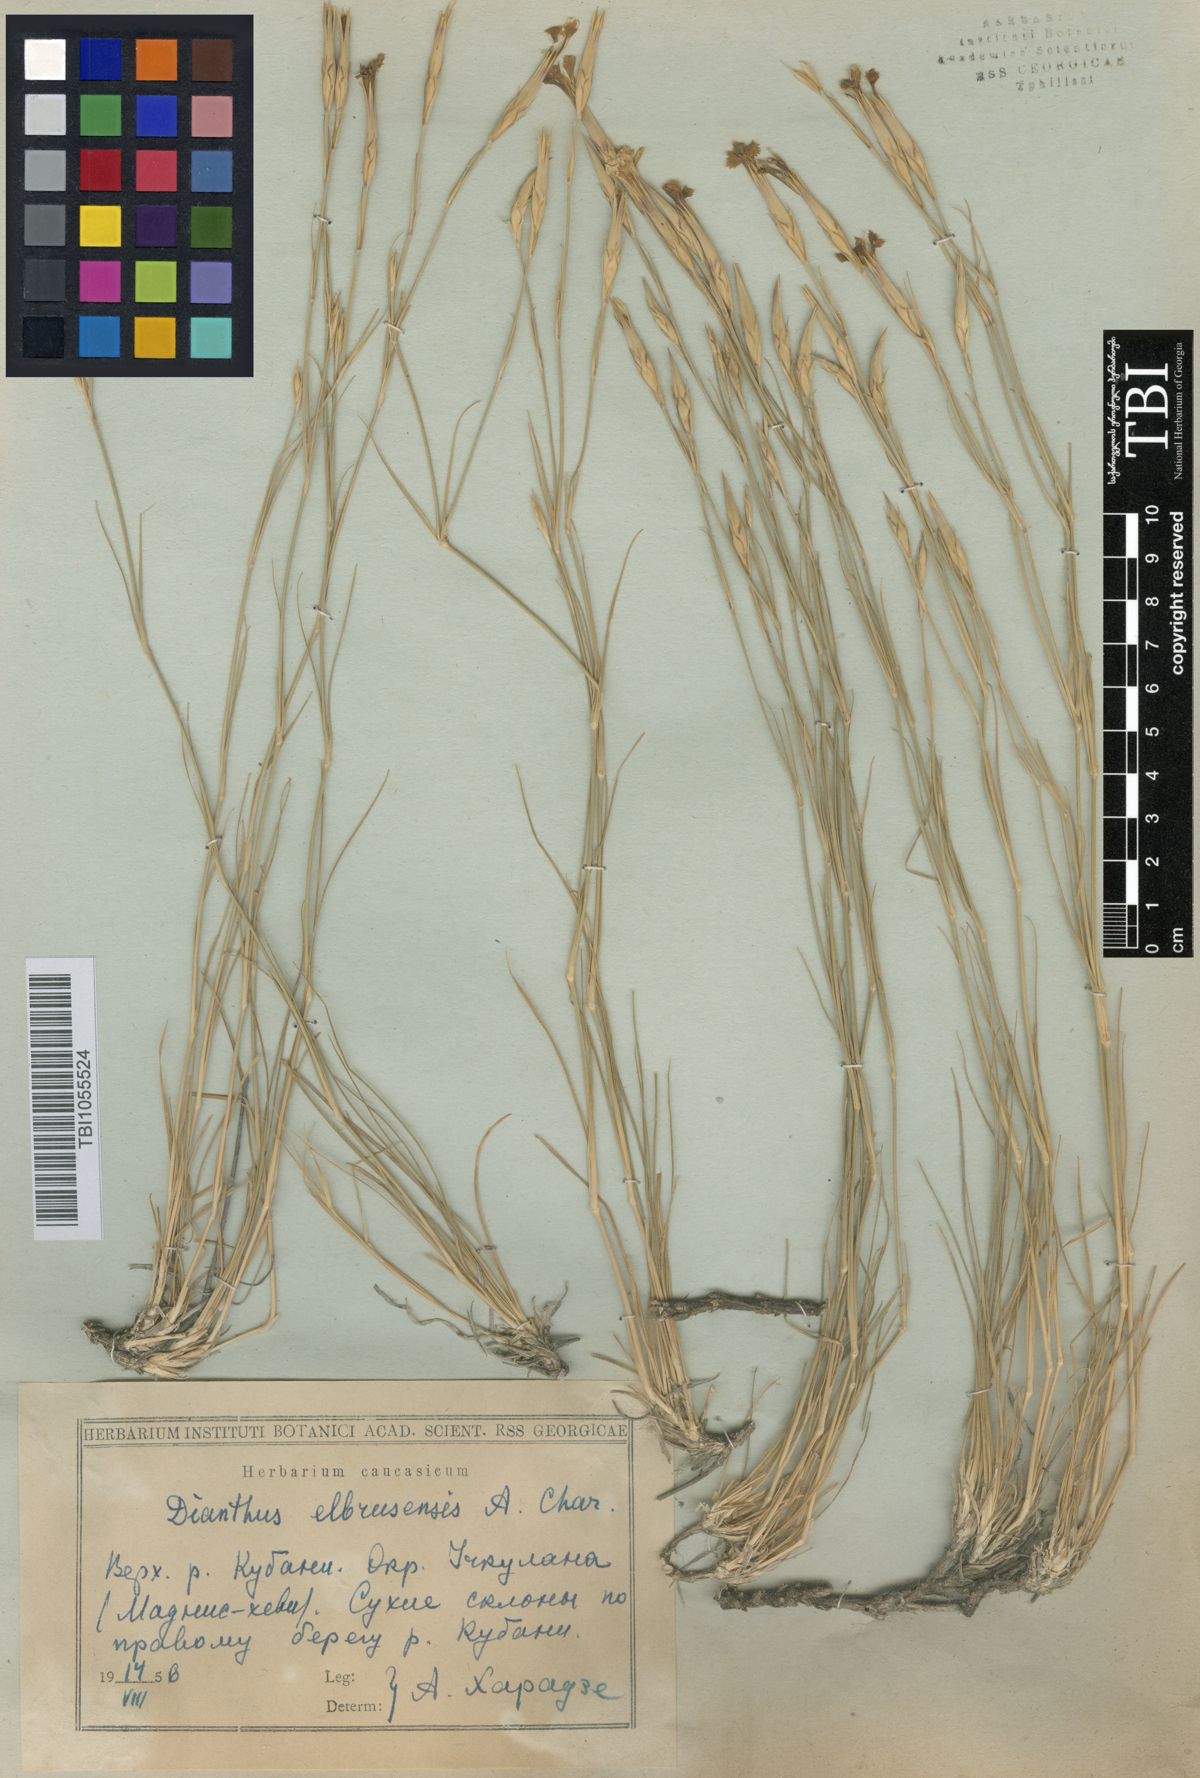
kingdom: Plantae
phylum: Tracheophyta
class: Magnoliopsida
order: Caryophyllales
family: Caryophyllaceae
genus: Dianthus
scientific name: Dianthus
